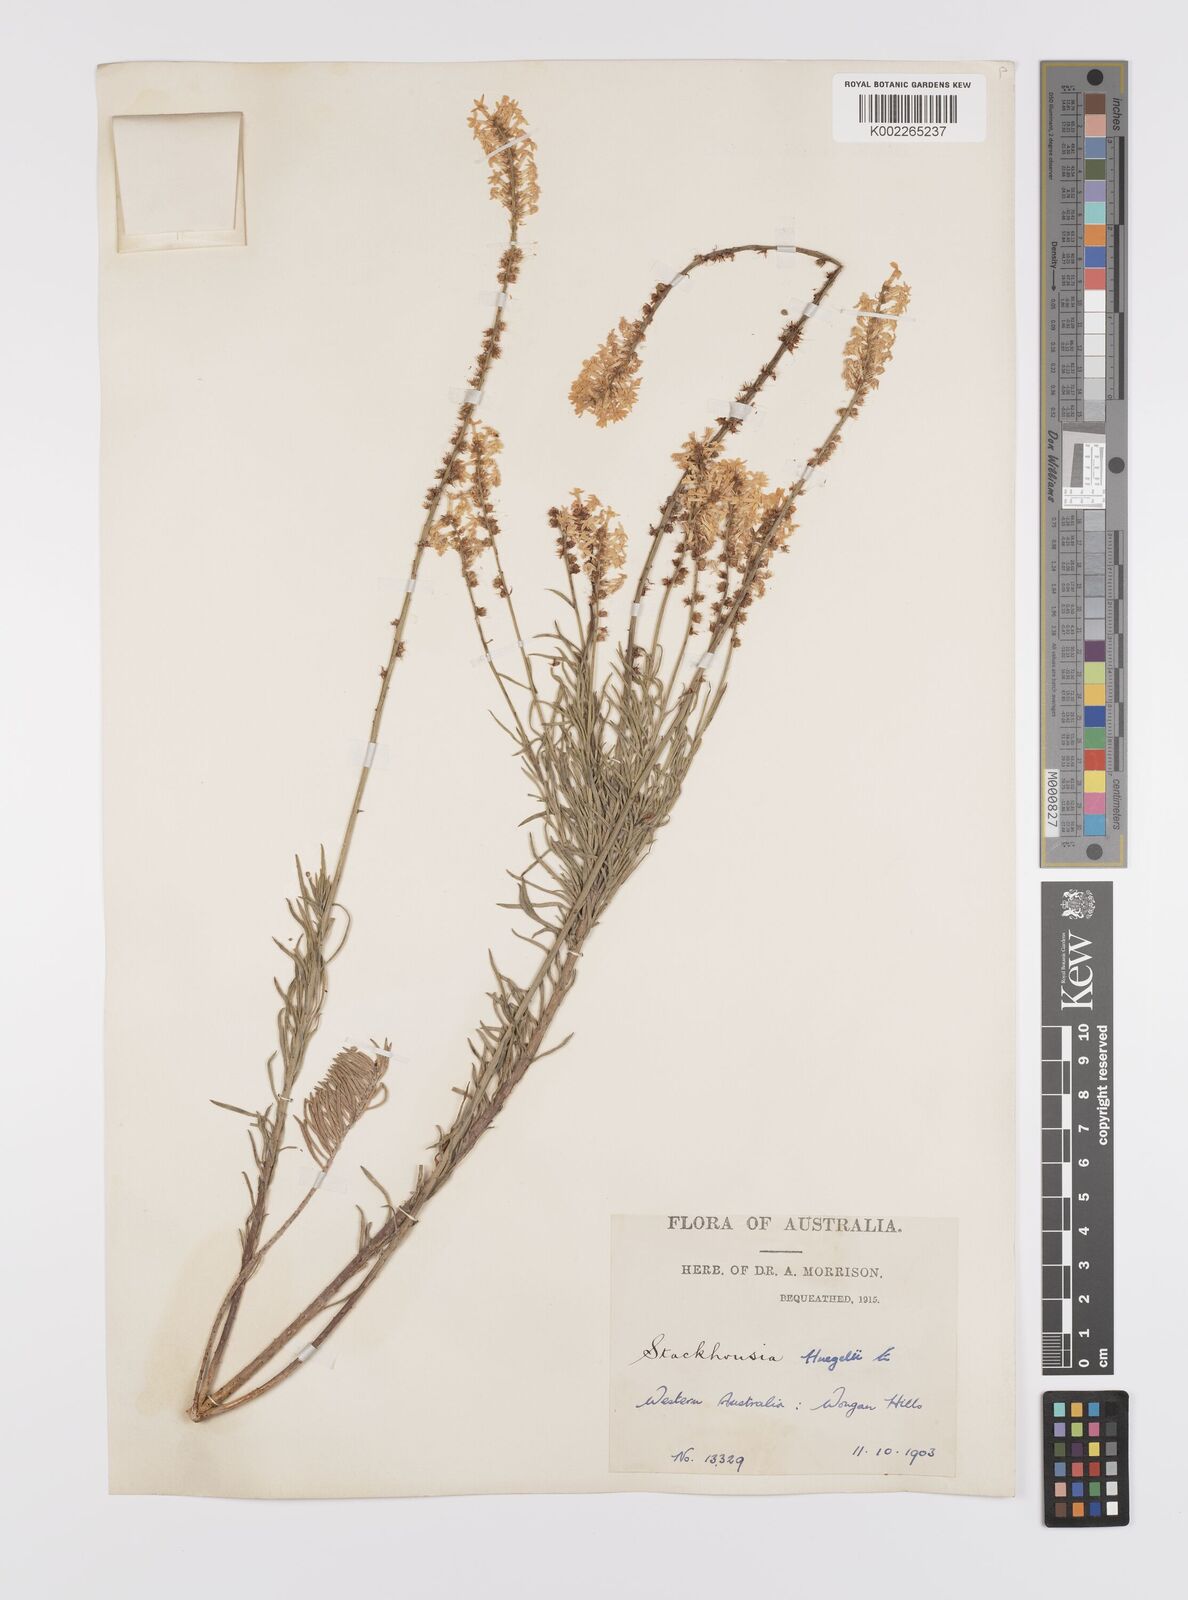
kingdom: Plantae
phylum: Tracheophyta
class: Magnoliopsida
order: Celastrales
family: Celastraceae
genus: Stackhousia
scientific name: Stackhousia monogyna
